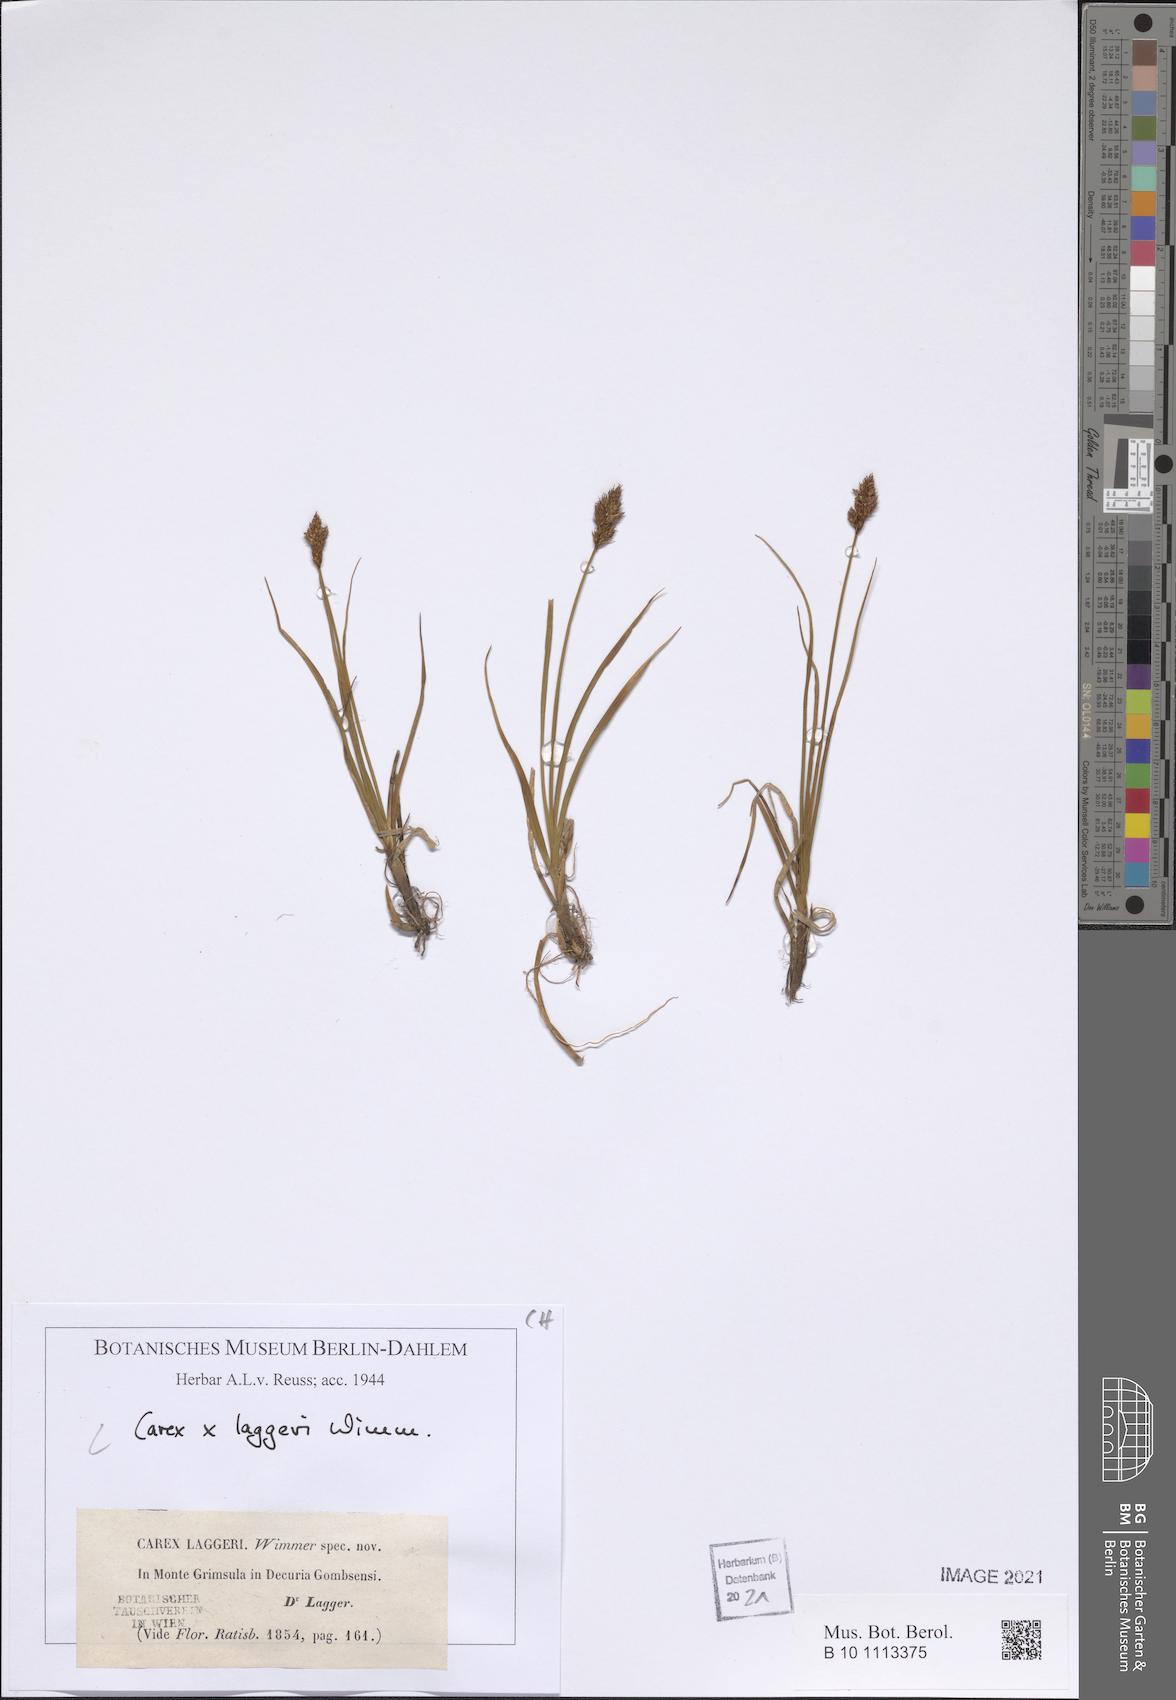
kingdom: Plantae
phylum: Tracheophyta
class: Liliopsida
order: Poales
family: Cyperaceae
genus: Carex
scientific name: Carex laggeri
